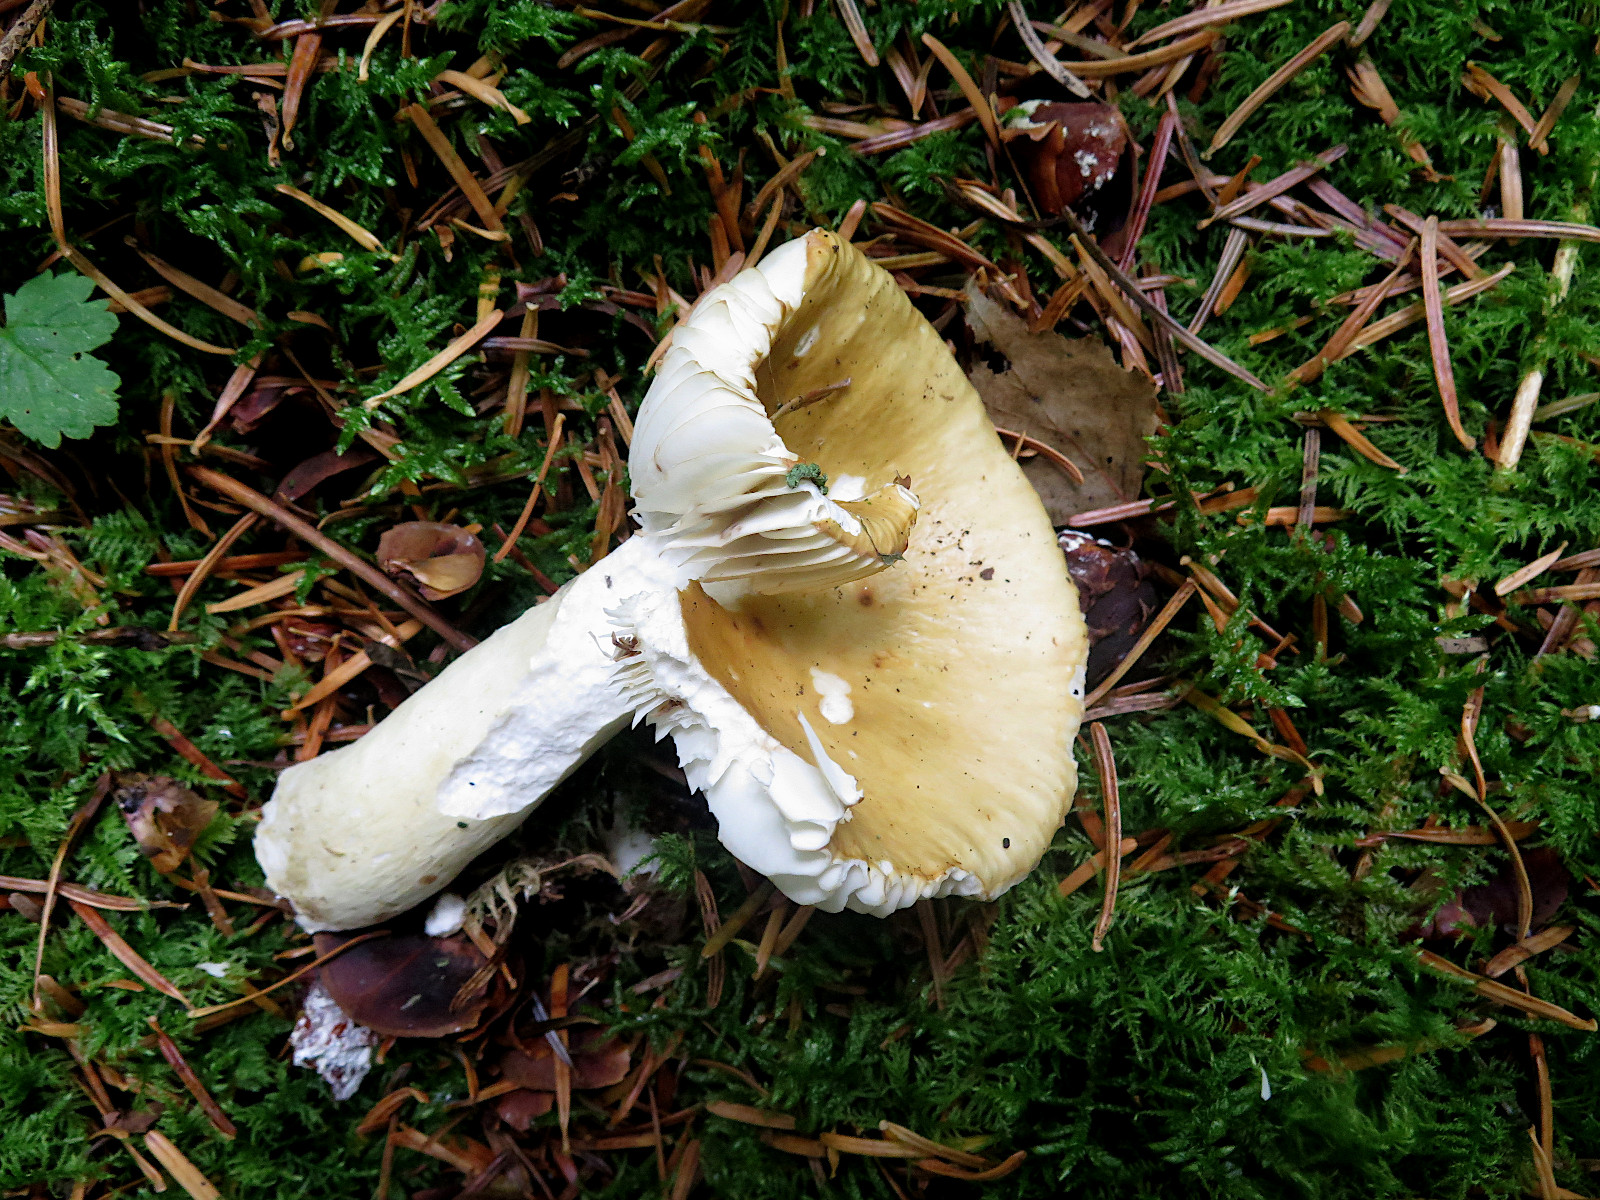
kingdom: Fungi
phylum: Basidiomycota
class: Agaricomycetes
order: Russulales
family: Russulaceae
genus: Russula
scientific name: Russula ochroleuca
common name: okkergul skørhat
